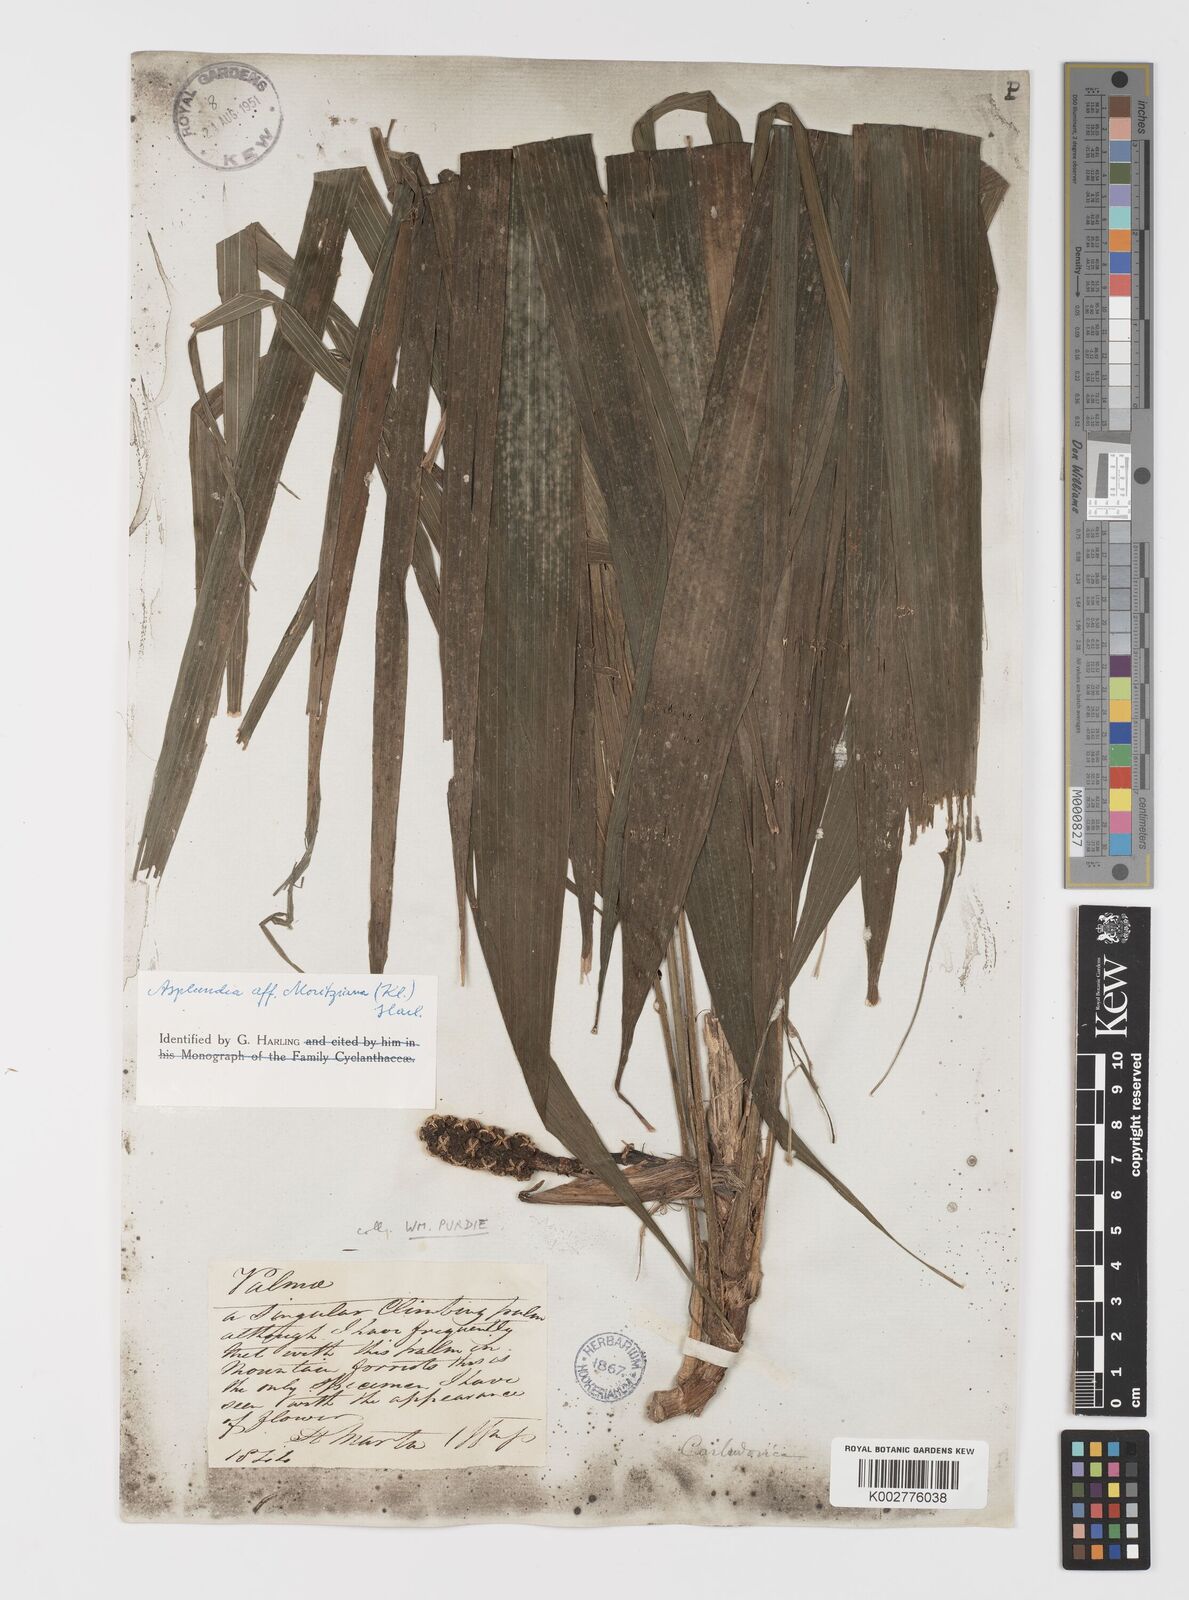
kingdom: Plantae
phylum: Tracheophyta
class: Liliopsida
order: Pandanales
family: Cyclanthaceae
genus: Asplundia
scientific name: Asplundia moritziana
